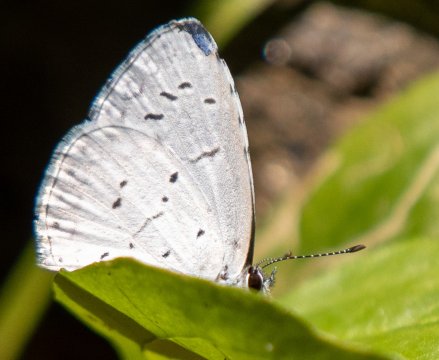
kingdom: Animalia
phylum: Arthropoda
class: Insecta
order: Lepidoptera
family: Lycaenidae
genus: Cyaniris
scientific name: Cyaniris neglecta
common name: Summer Azure
